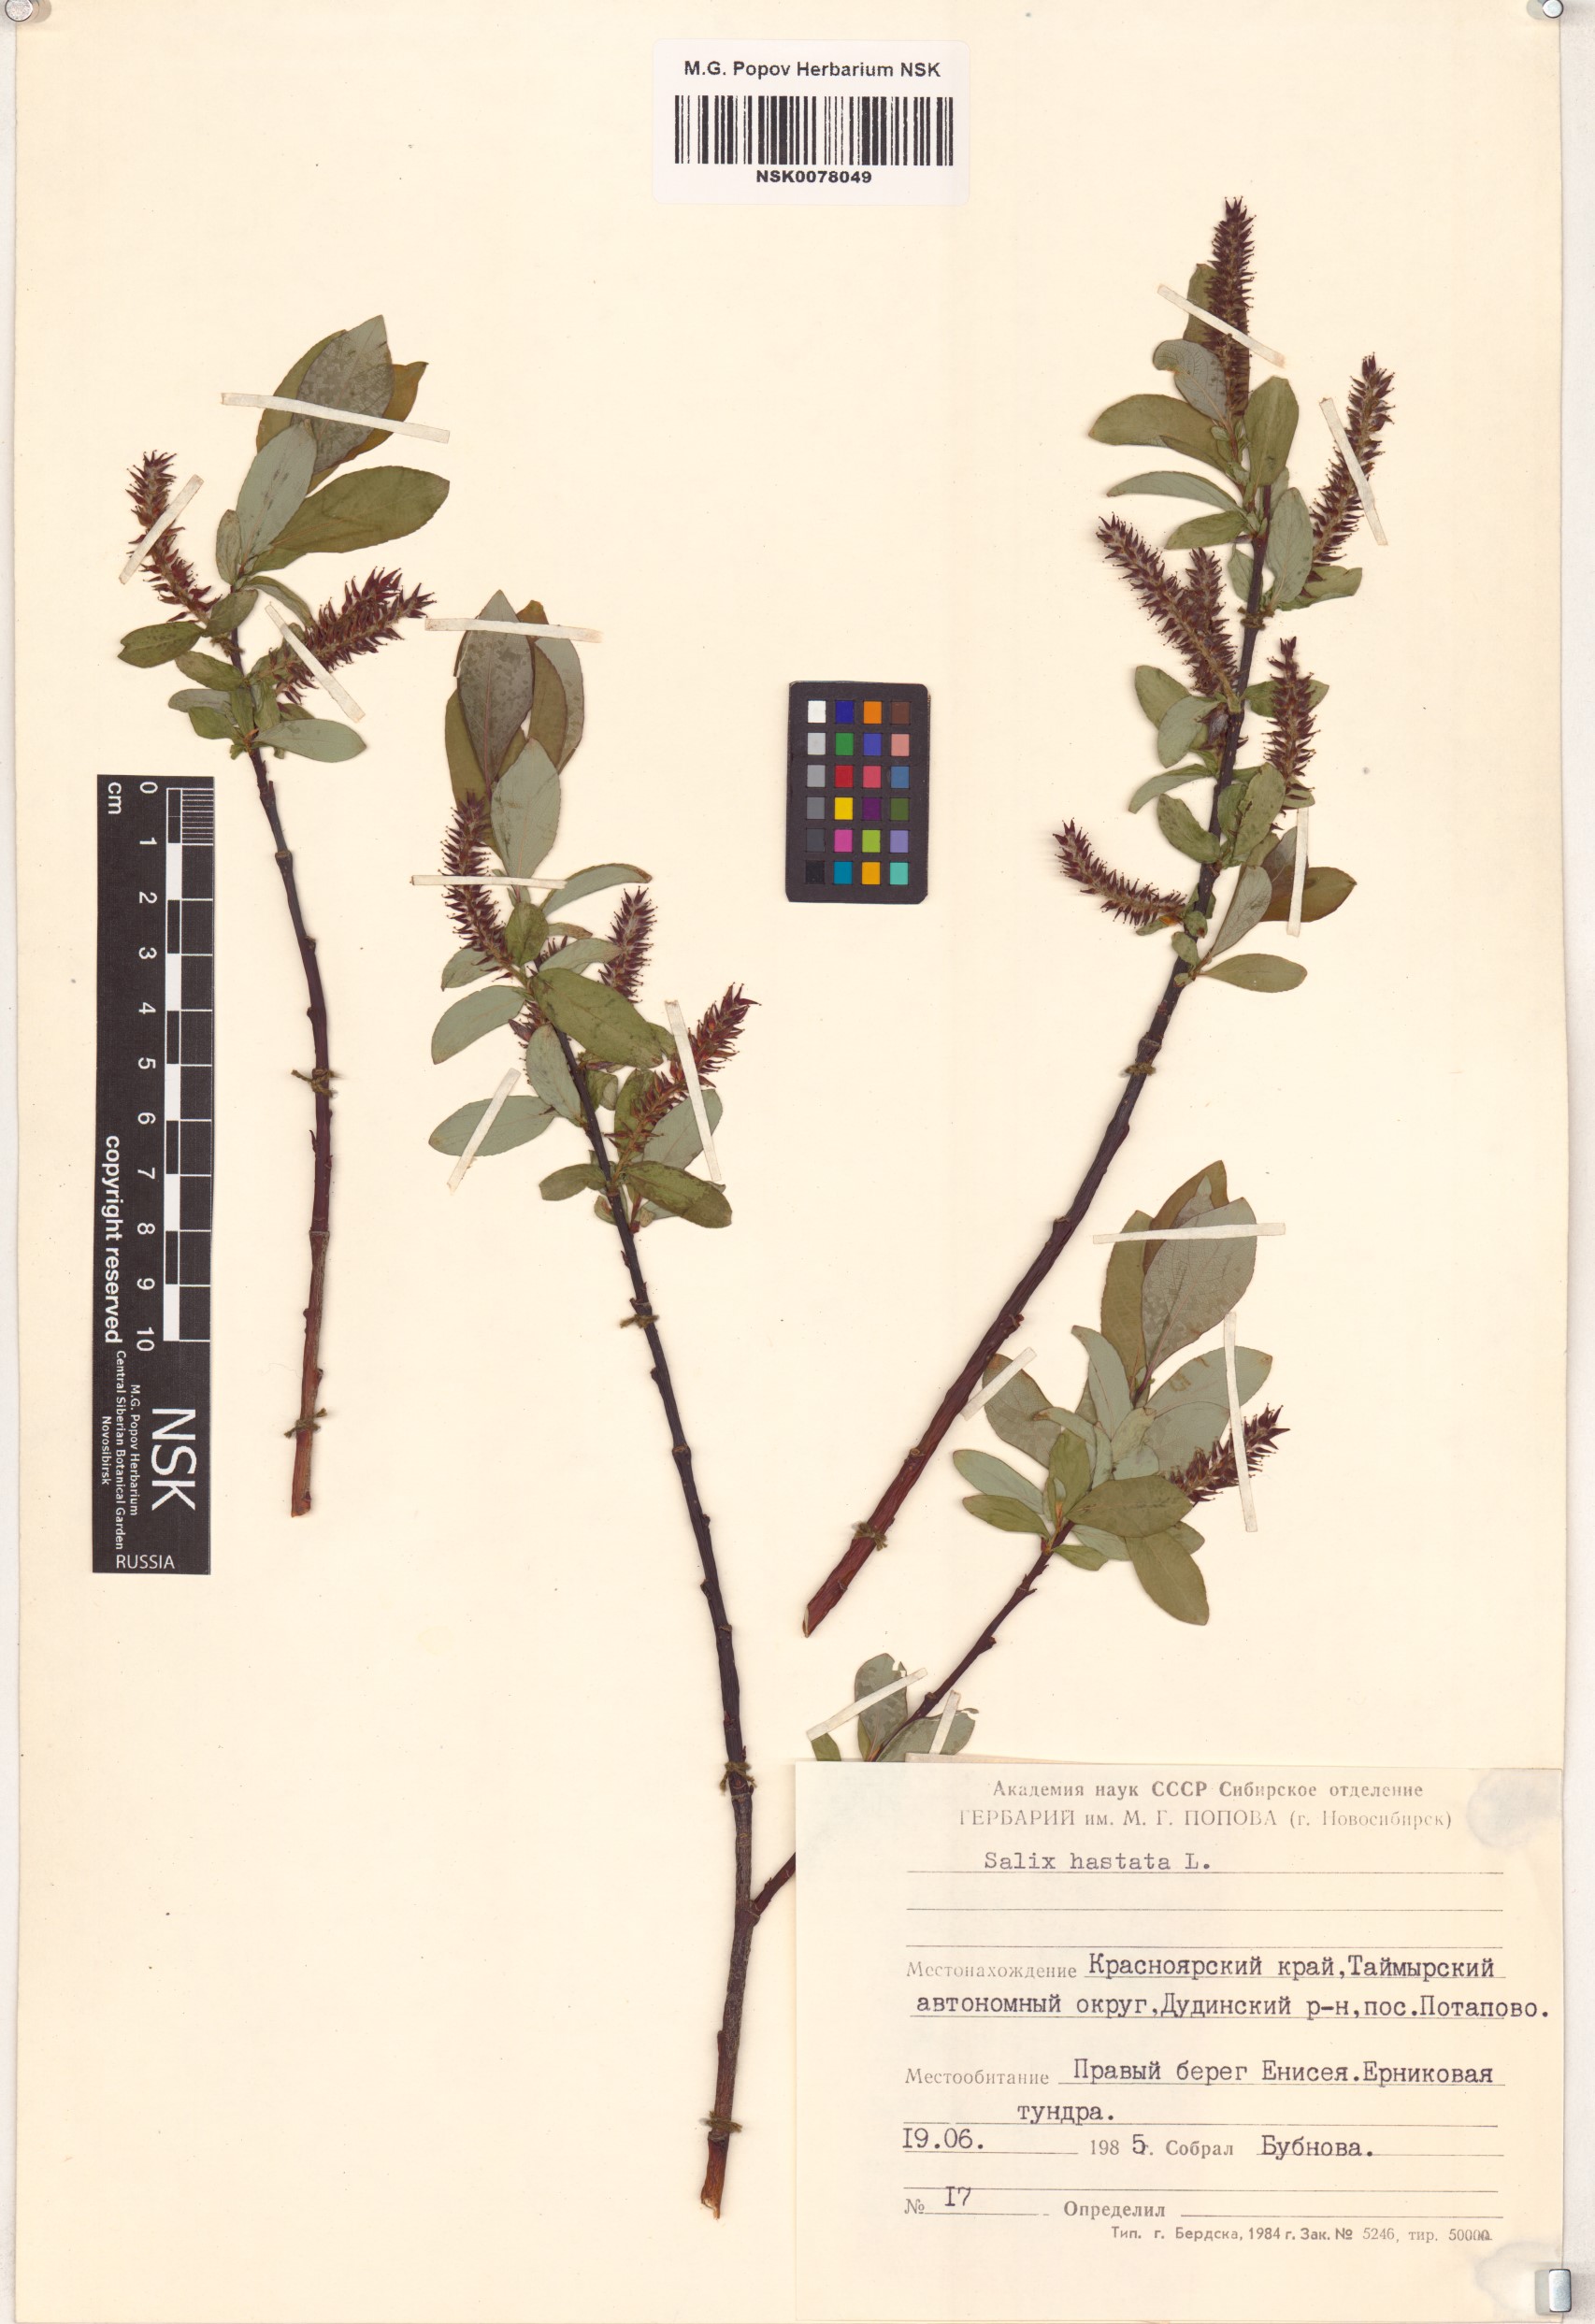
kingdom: Plantae
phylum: Tracheophyta
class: Magnoliopsida
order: Malpighiales
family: Salicaceae
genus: Salix
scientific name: Salix hastata
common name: Halberd willow
